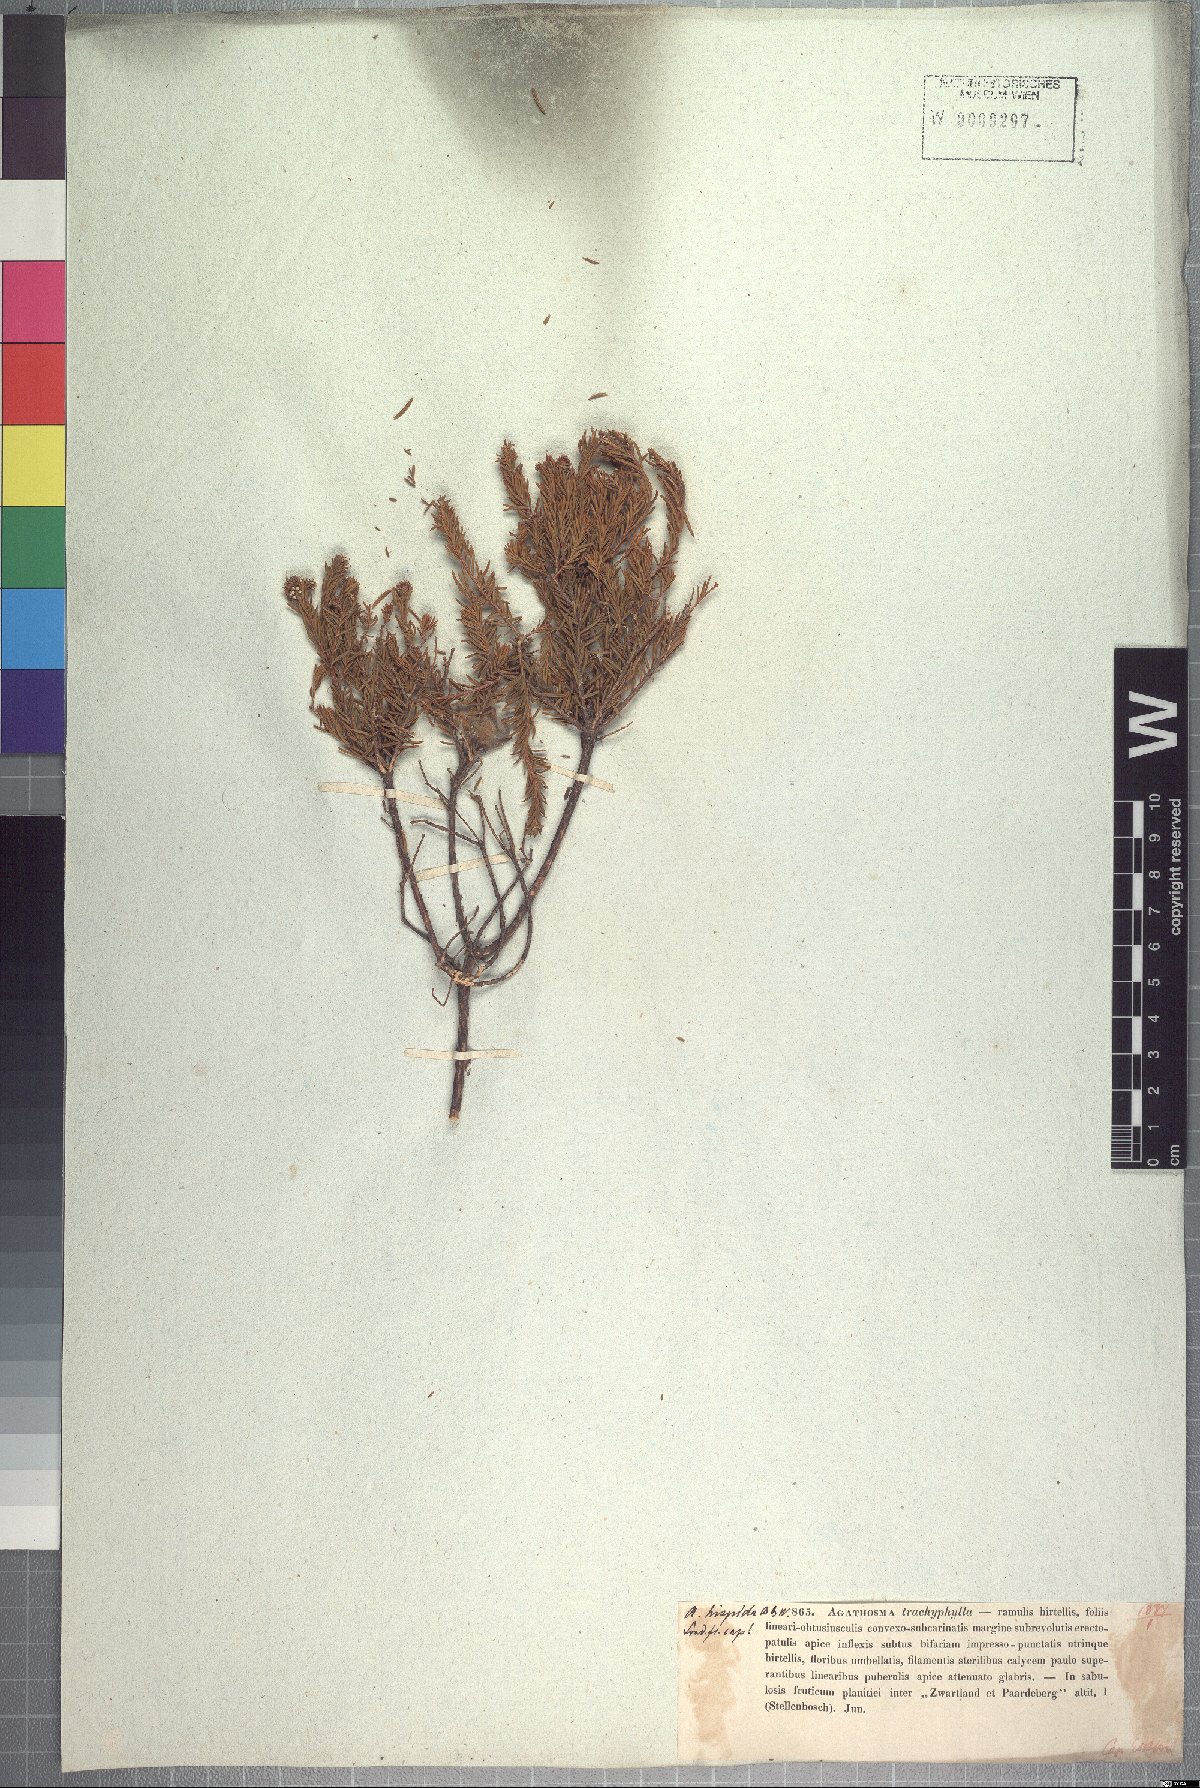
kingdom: Plantae
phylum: Tracheophyta
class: Magnoliopsida
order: Sapindales
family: Rutaceae
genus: Agathosma
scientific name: Agathosma hispida
